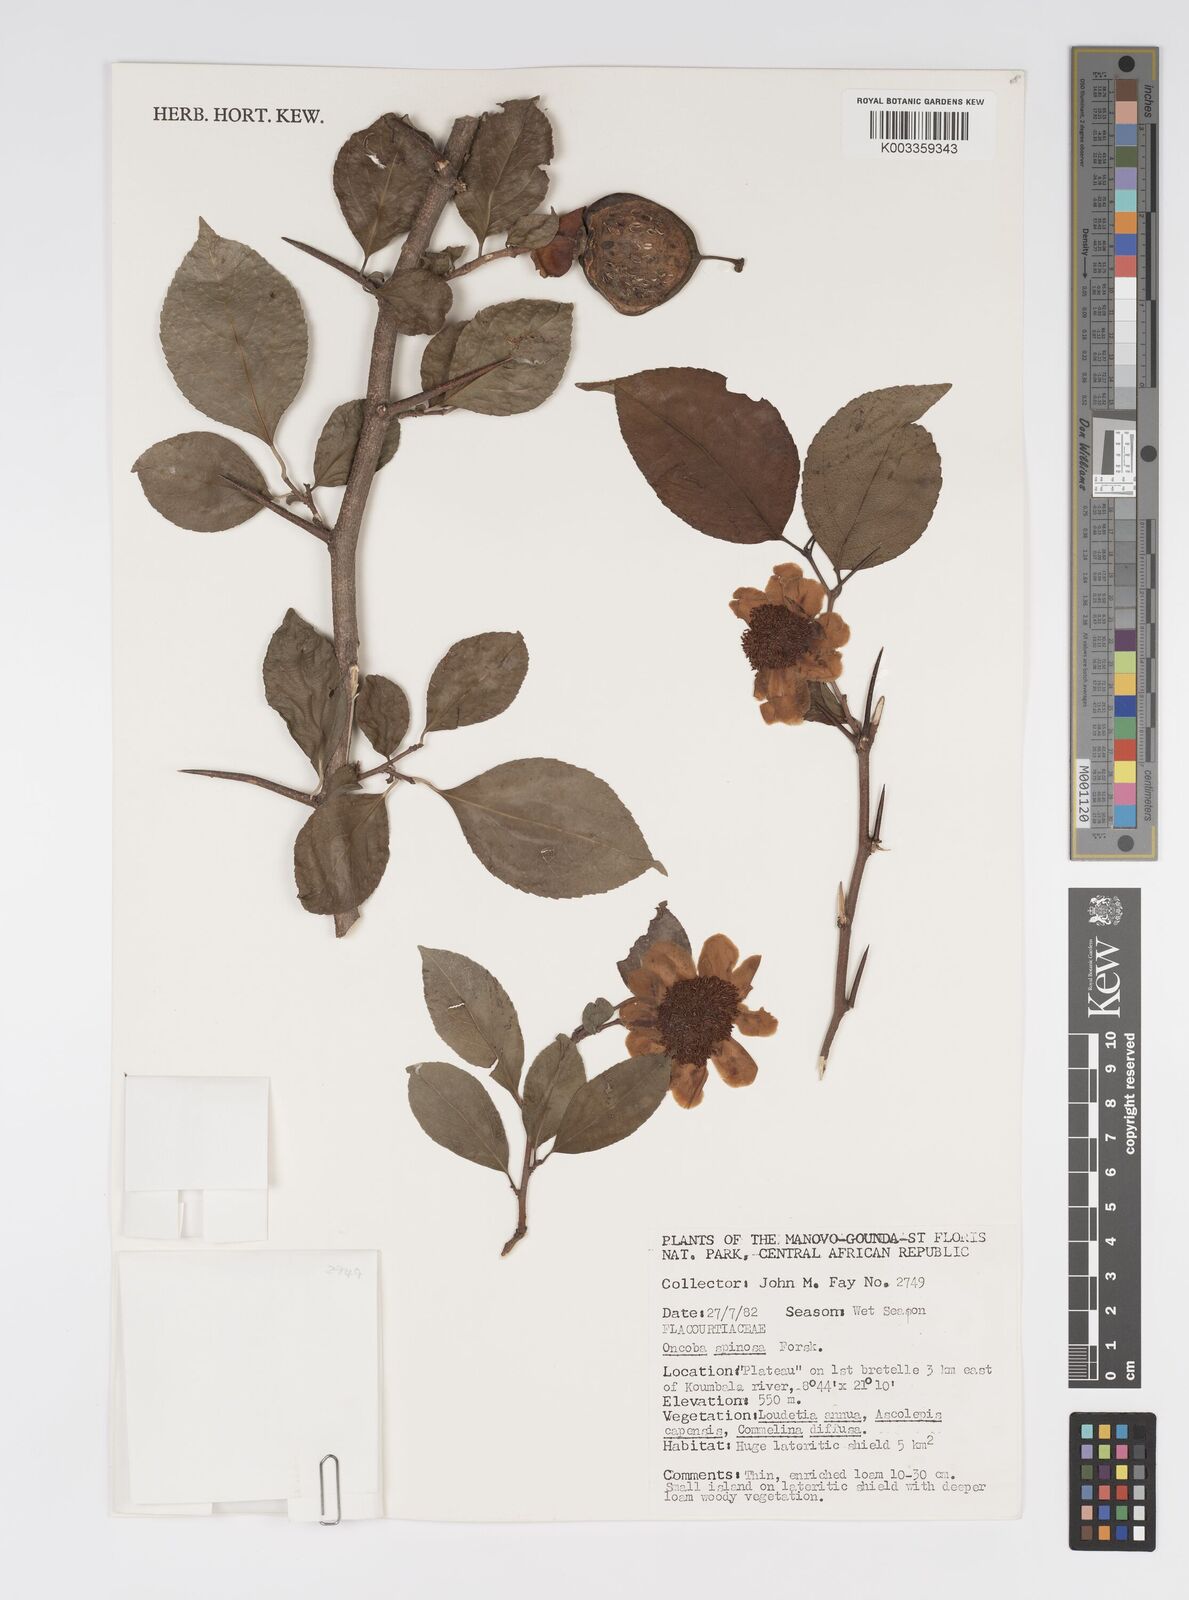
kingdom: Plantae
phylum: Tracheophyta
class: Magnoliopsida
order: Malpighiales
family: Salicaceae
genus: Oncoba
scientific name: Oncoba spinosa
